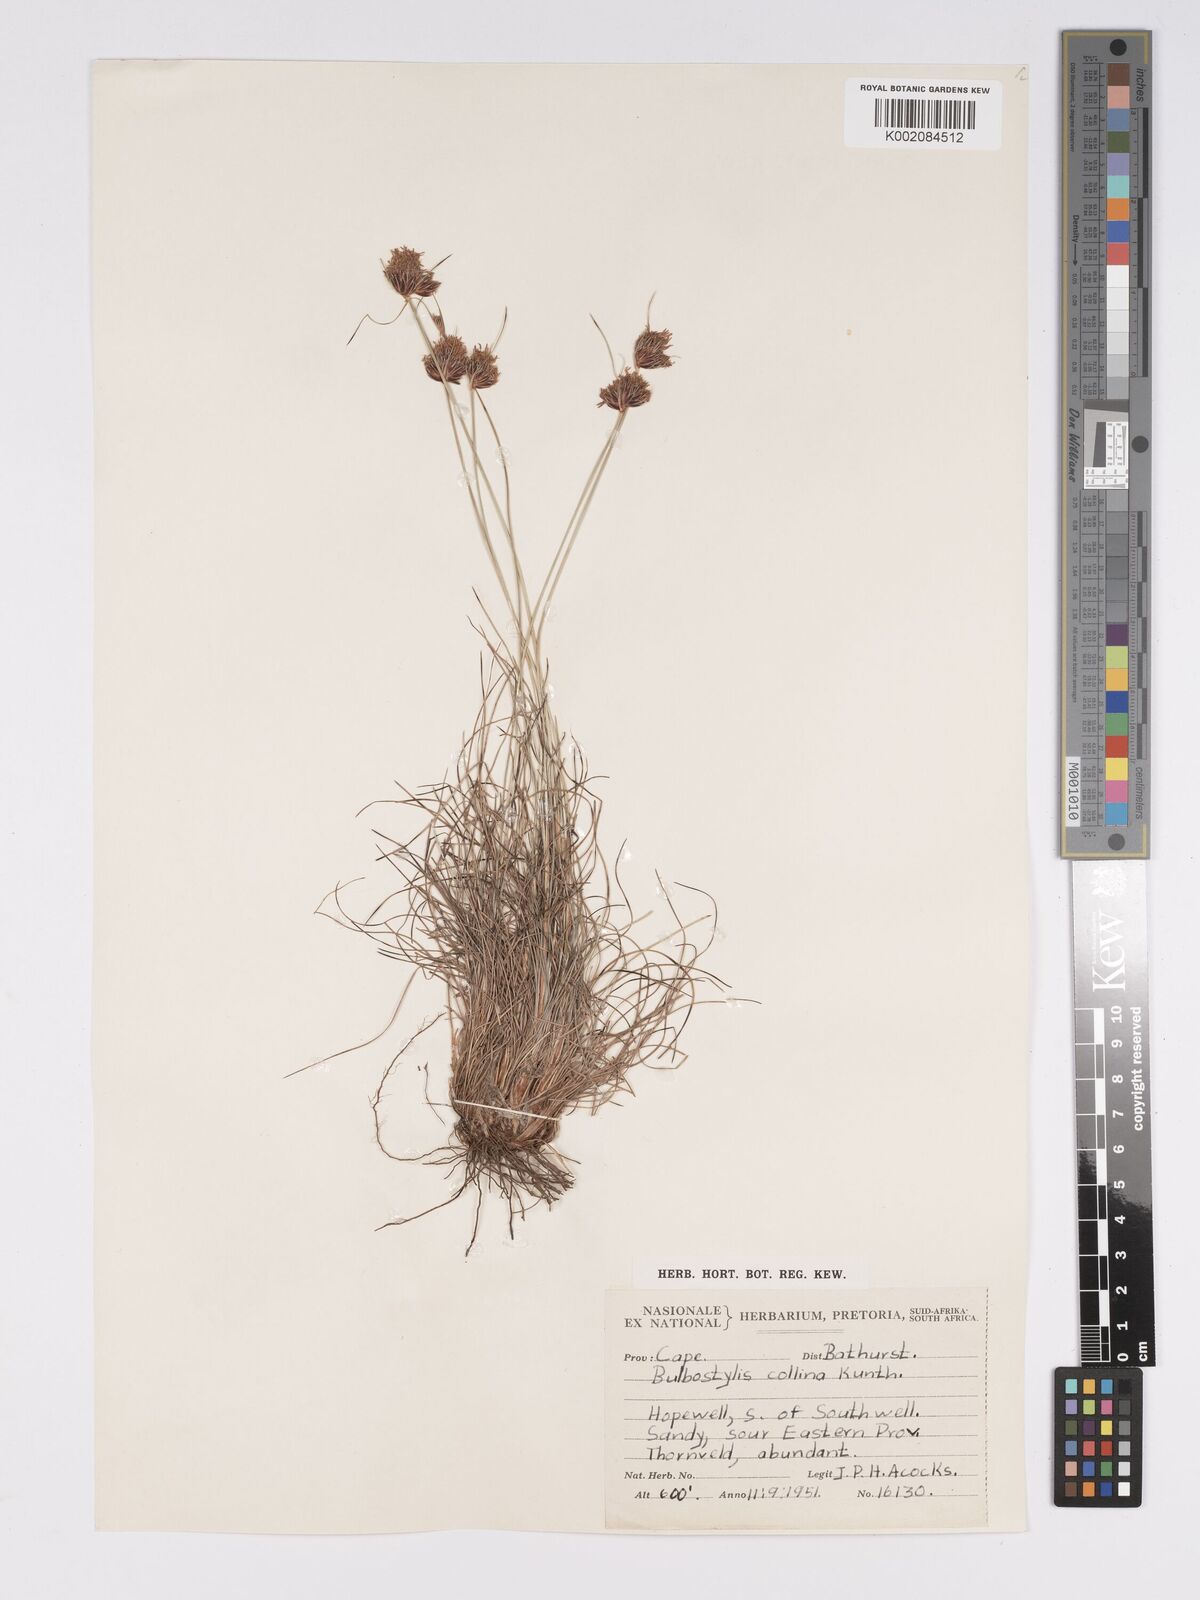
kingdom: Plantae
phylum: Tracheophyta
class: Liliopsida
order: Poales
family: Cyperaceae
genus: Bulbostylis
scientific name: Bulbostylis contexta
